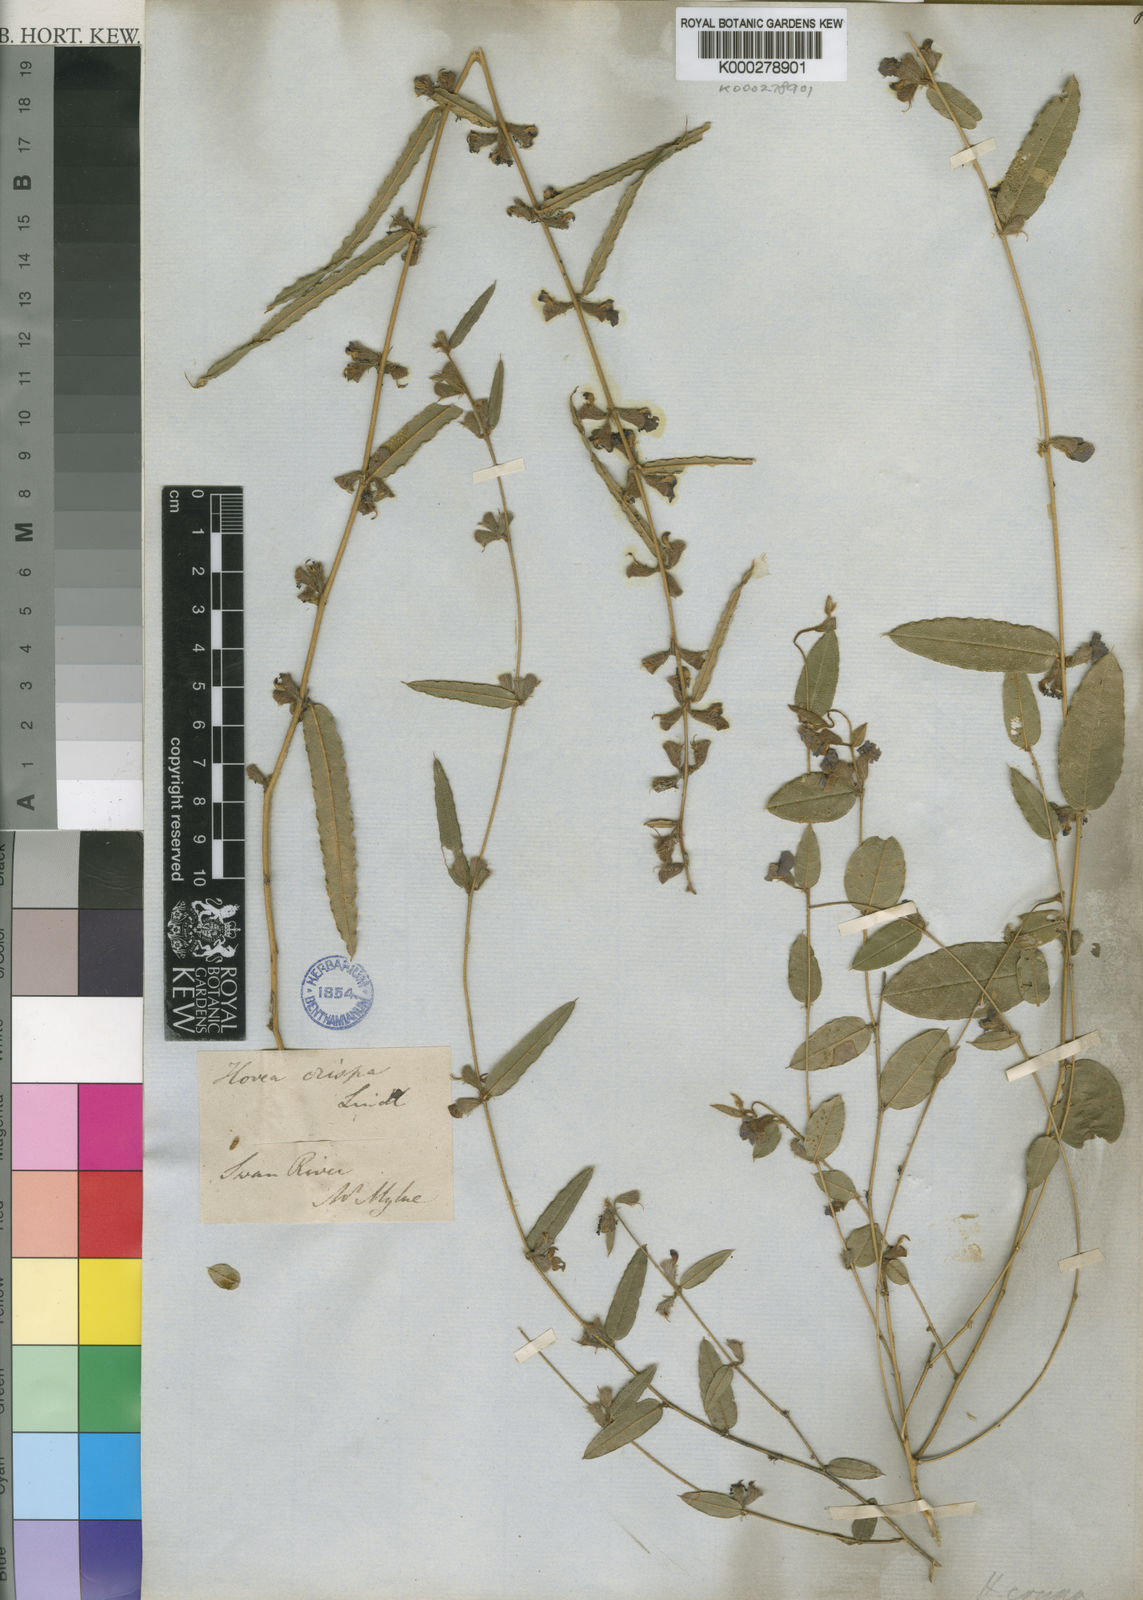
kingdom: Plantae
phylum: Tracheophyta
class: Magnoliopsida
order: Fabales
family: Fabaceae
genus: Hovea
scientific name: Hovea trisperma
